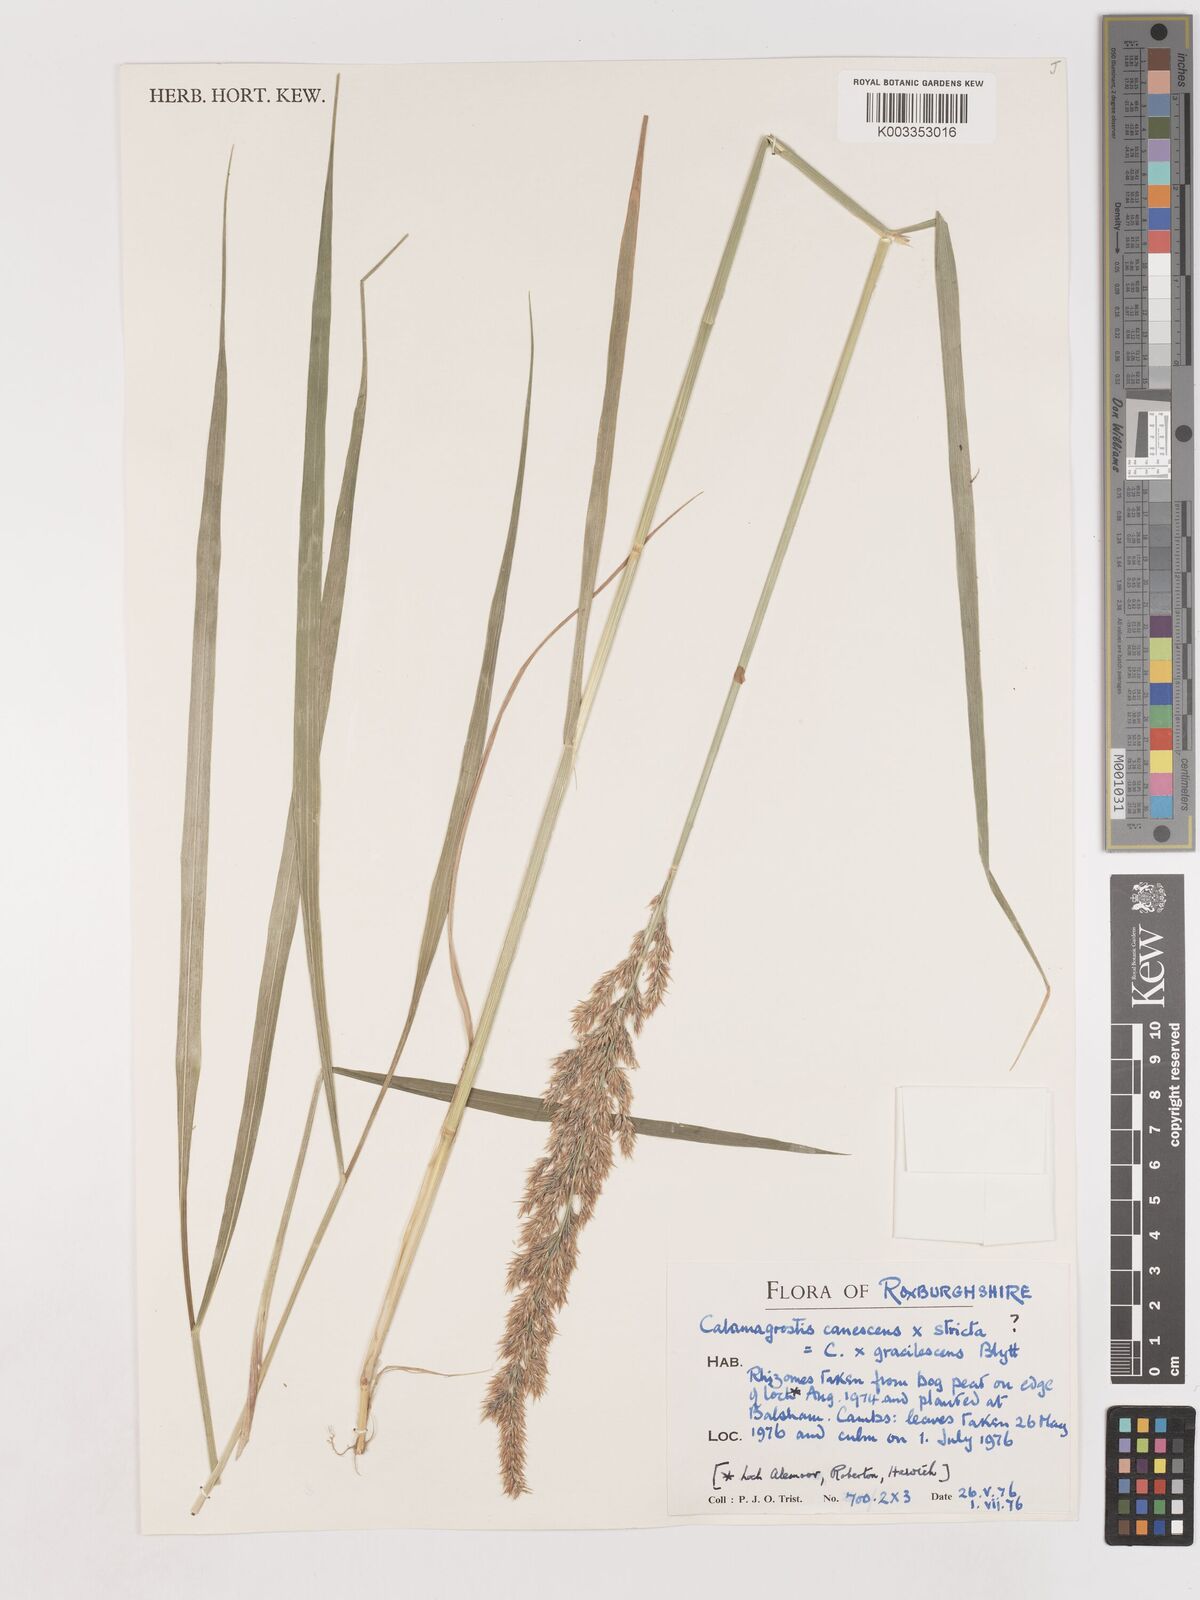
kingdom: Plantae
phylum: Tracheophyta
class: Liliopsida
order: Poales
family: Poaceae
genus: Calamagrostis
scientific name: Calamagrostis canescens
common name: Purple small-reed
